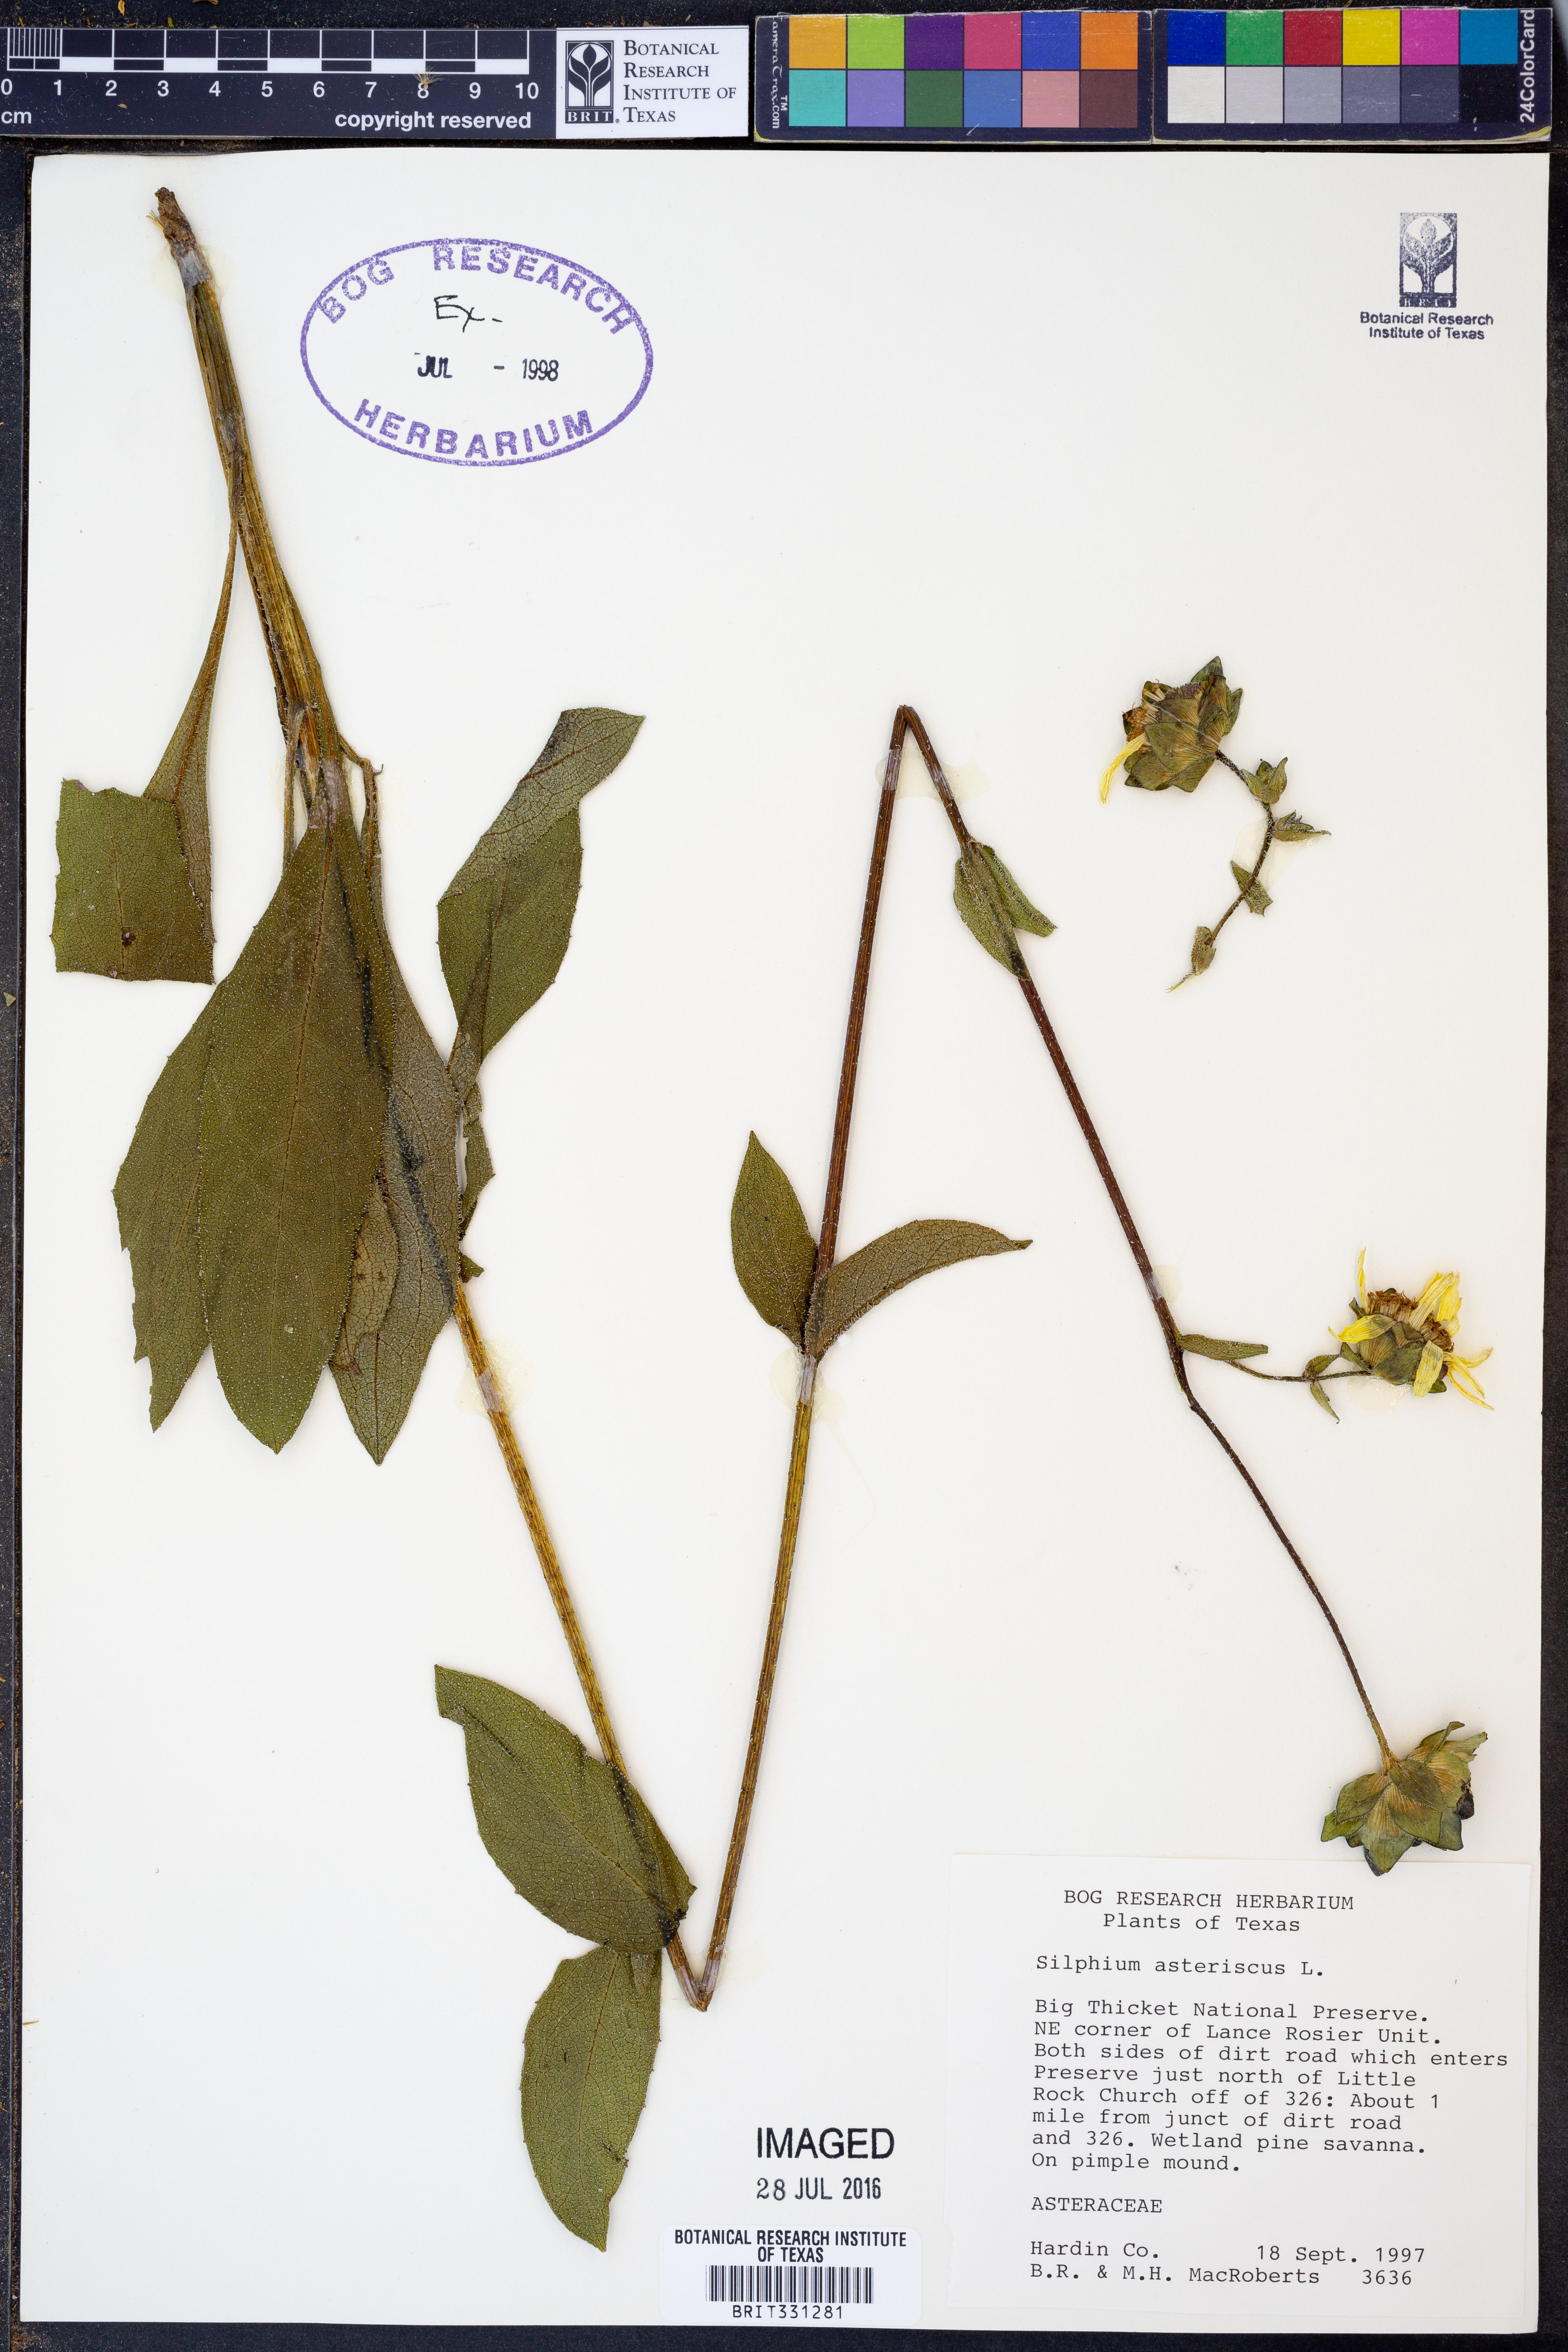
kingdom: Plantae
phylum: Tracheophyta
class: Magnoliopsida
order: Asterales
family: Asteraceae
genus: Silphium
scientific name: Silphium asteriscus
